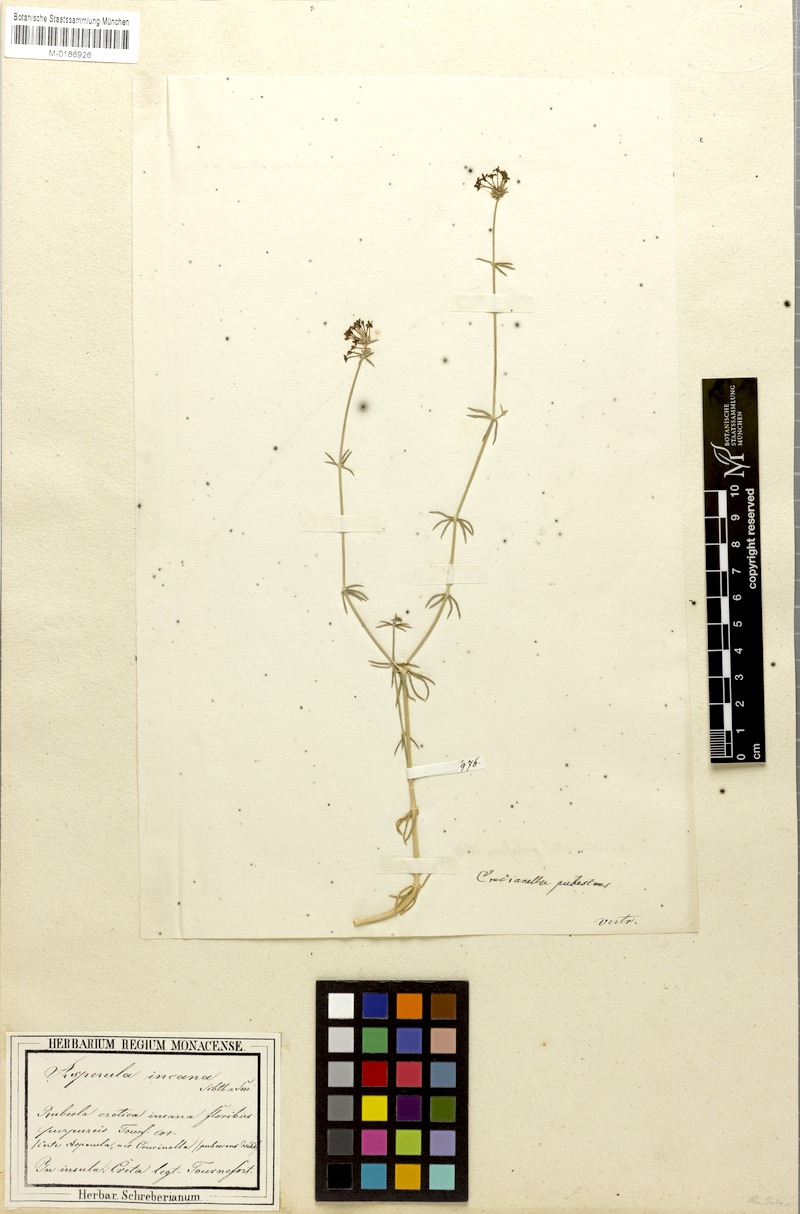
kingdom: Plantae
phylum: Tracheophyta
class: Magnoliopsida
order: Gentianales
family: Rubiaceae
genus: Hexaphylla
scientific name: Hexaphylla pubescens
